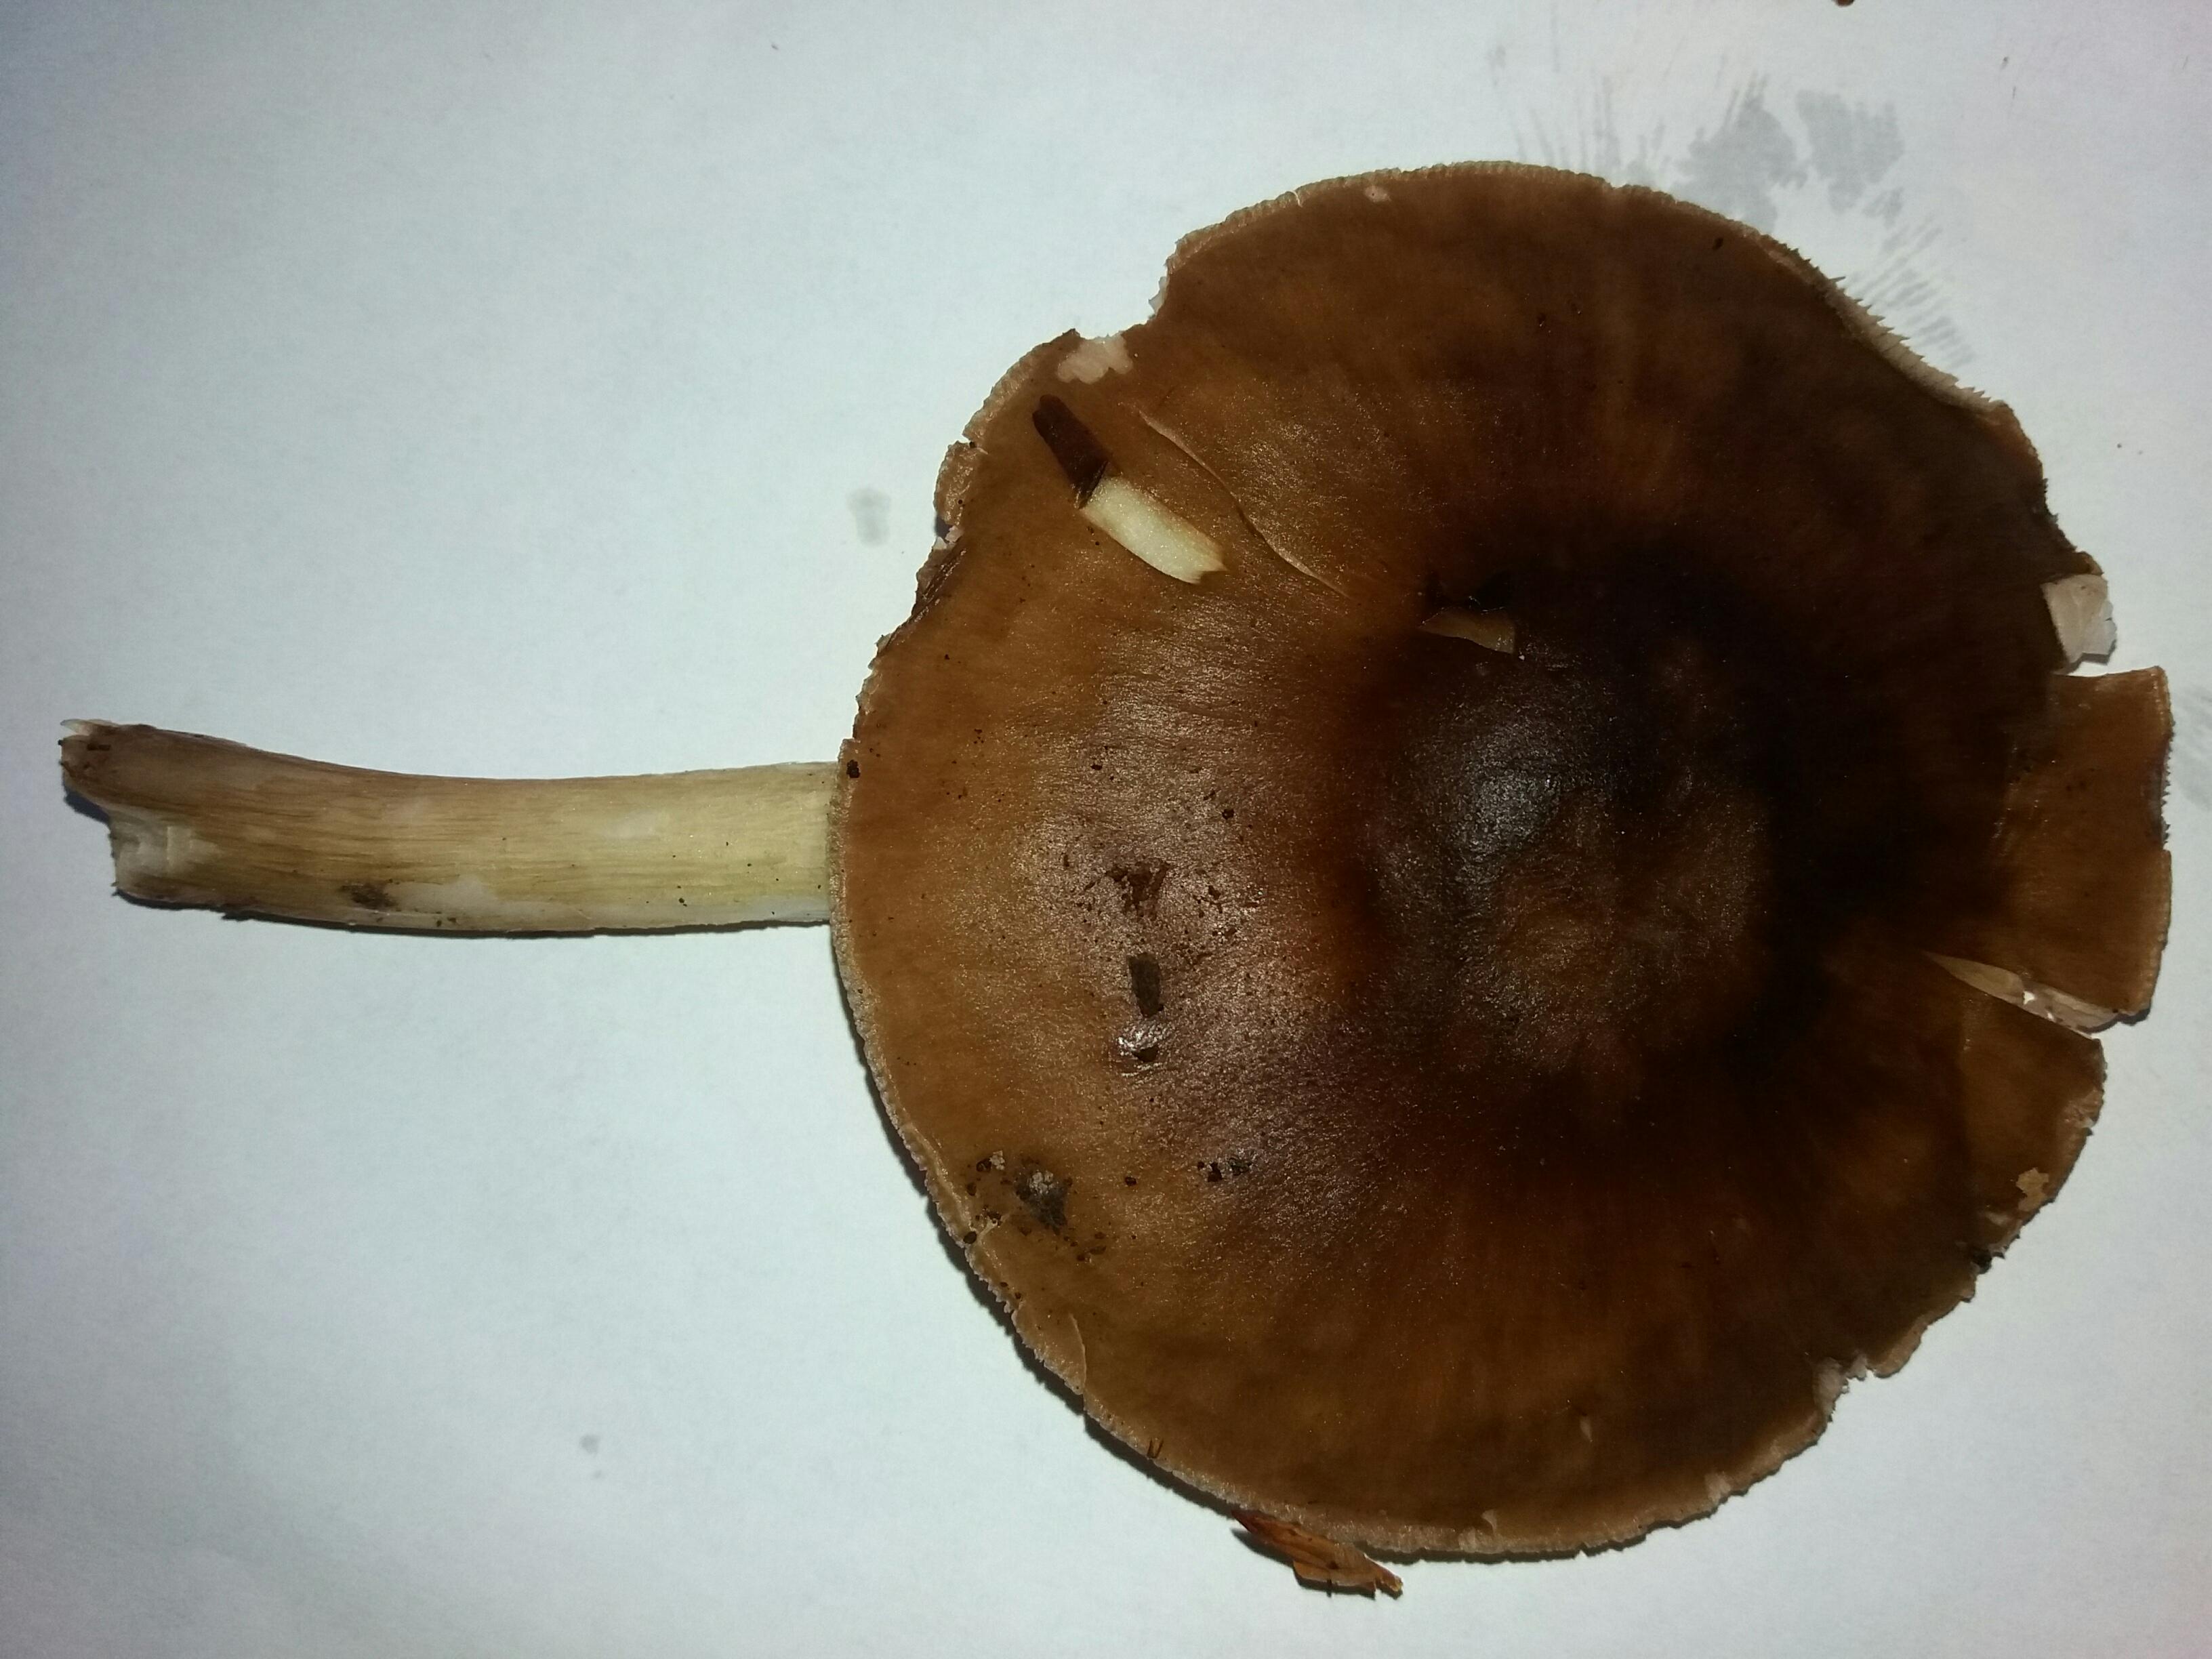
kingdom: Fungi
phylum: Basidiomycota
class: Agaricomycetes
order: Agaricales
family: Pluteaceae
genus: Pluteus
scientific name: Pluteus cervinus
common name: sodfarvet skærmhat
